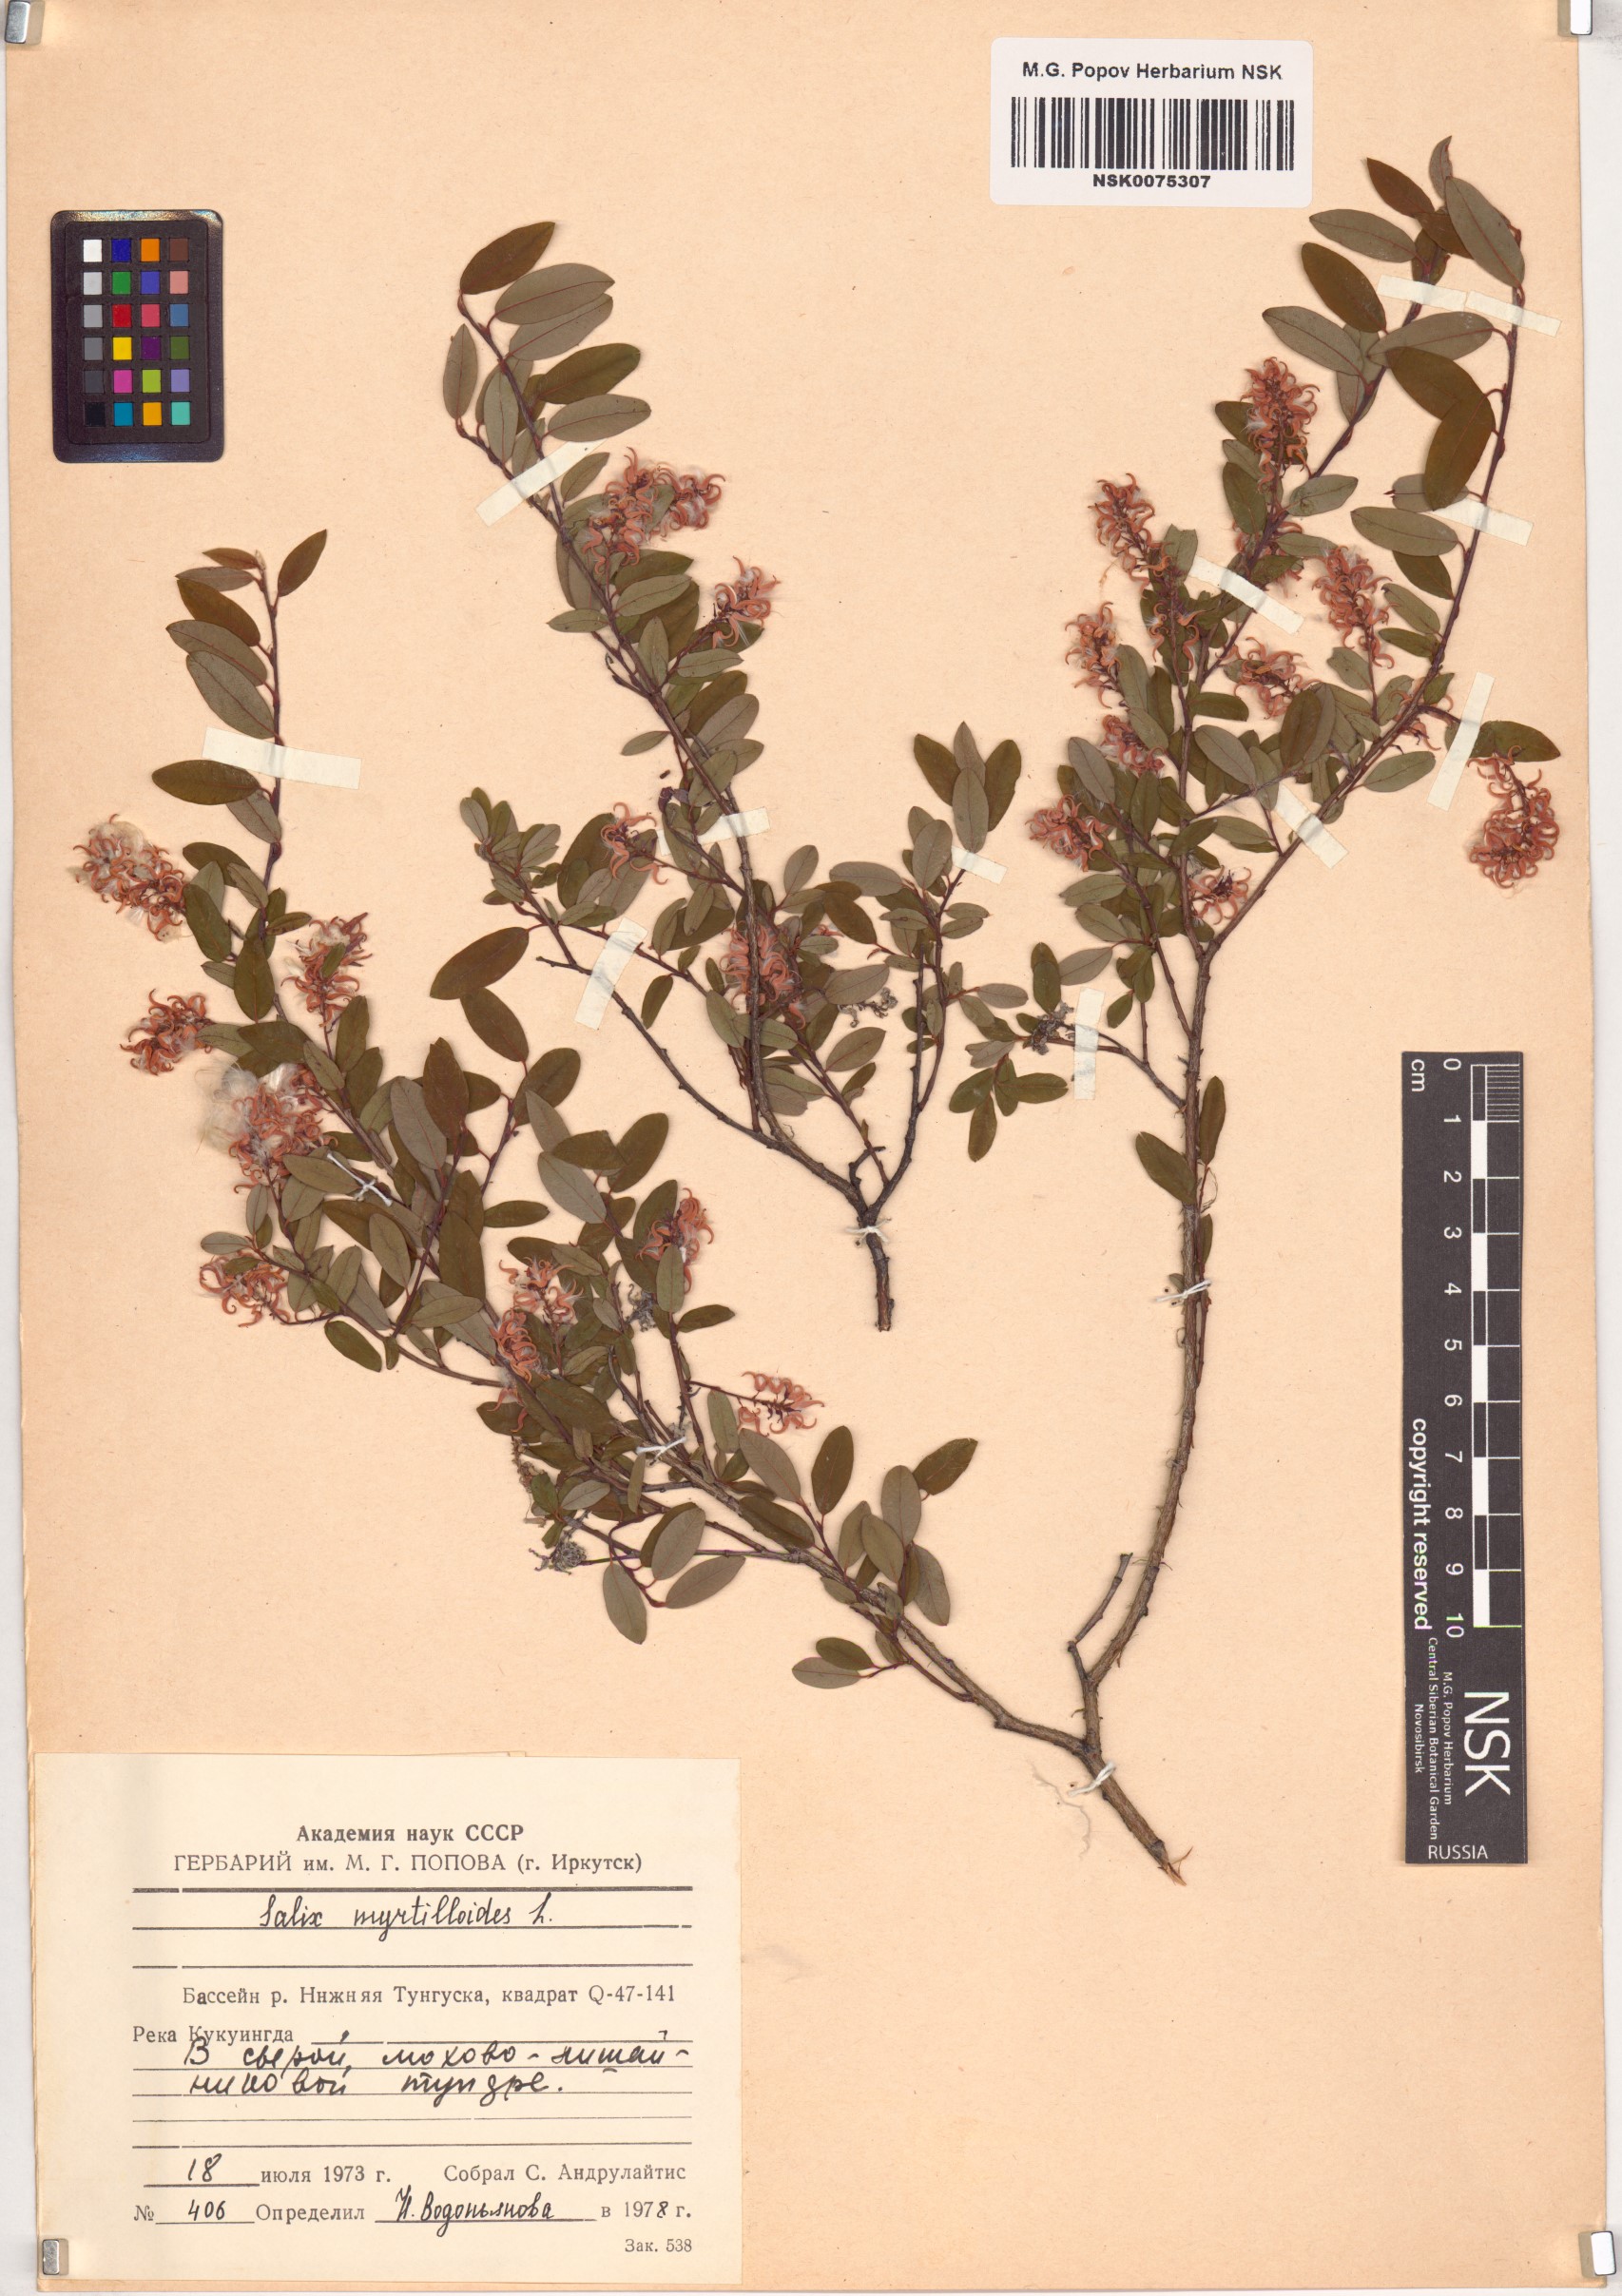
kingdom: Plantae
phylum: Tracheophyta
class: Magnoliopsida
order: Malpighiales
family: Salicaceae
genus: Salix
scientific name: Salix myrtilloides
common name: Myrtle-leaved willow
